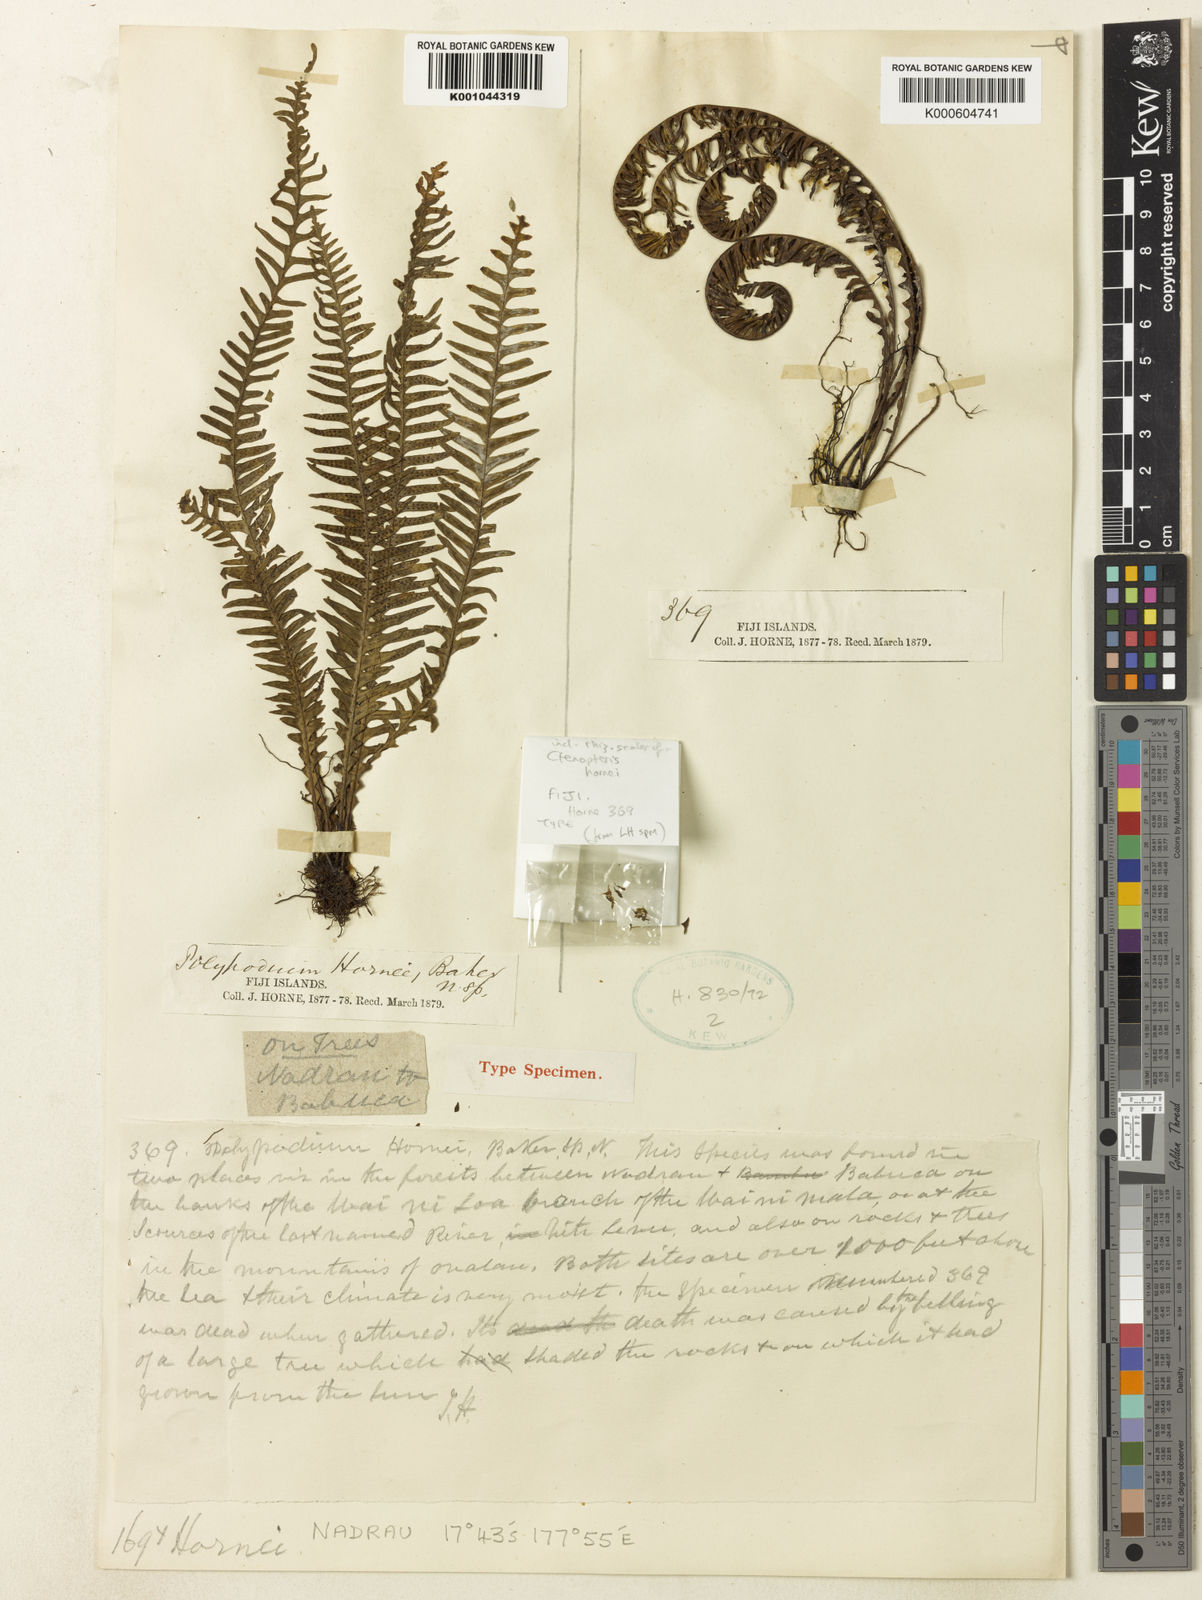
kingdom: Plantae
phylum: Tracheophyta
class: Polypodiopsida
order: Polypodiales
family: Polypodiaceae
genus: Prosaptia
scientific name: Prosaptia hornei
